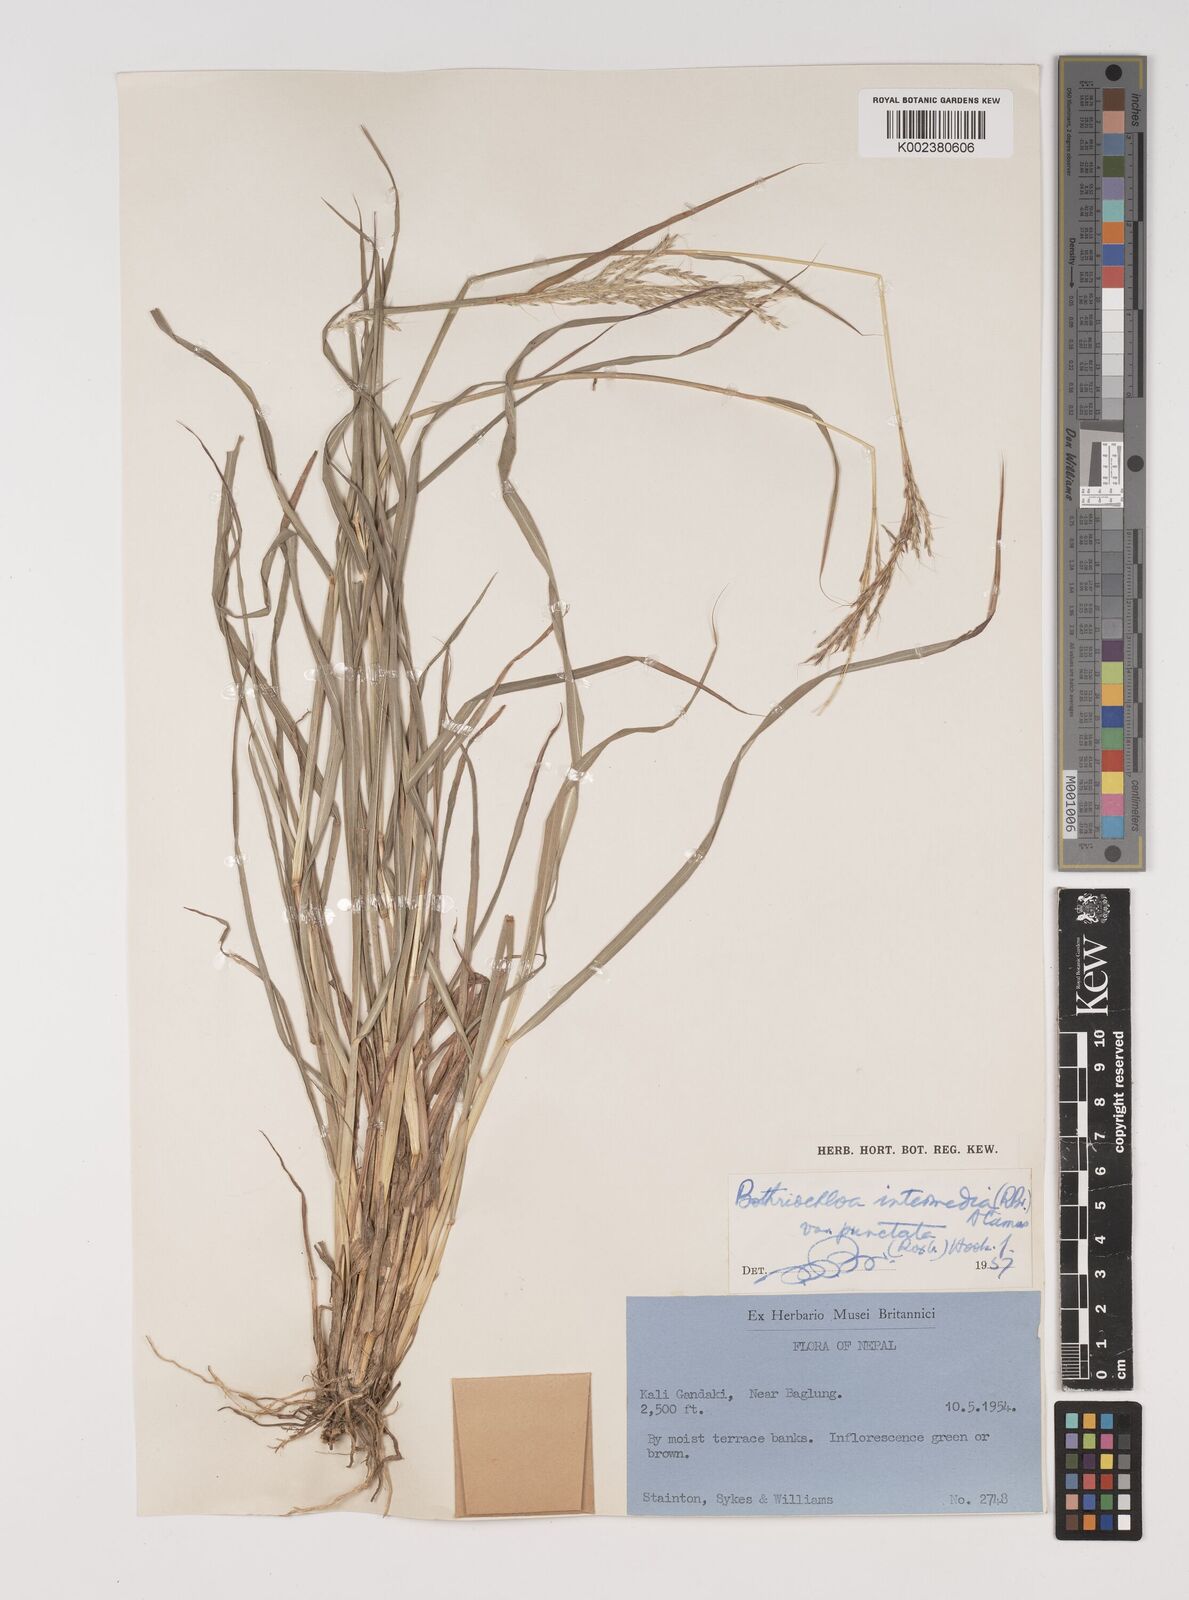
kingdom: Plantae
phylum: Tracheophyta
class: Liliopsida
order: Poales
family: Poaceae
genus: Bothriochloa
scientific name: Bothriochloa bladhii
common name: Caucasian bluestem
